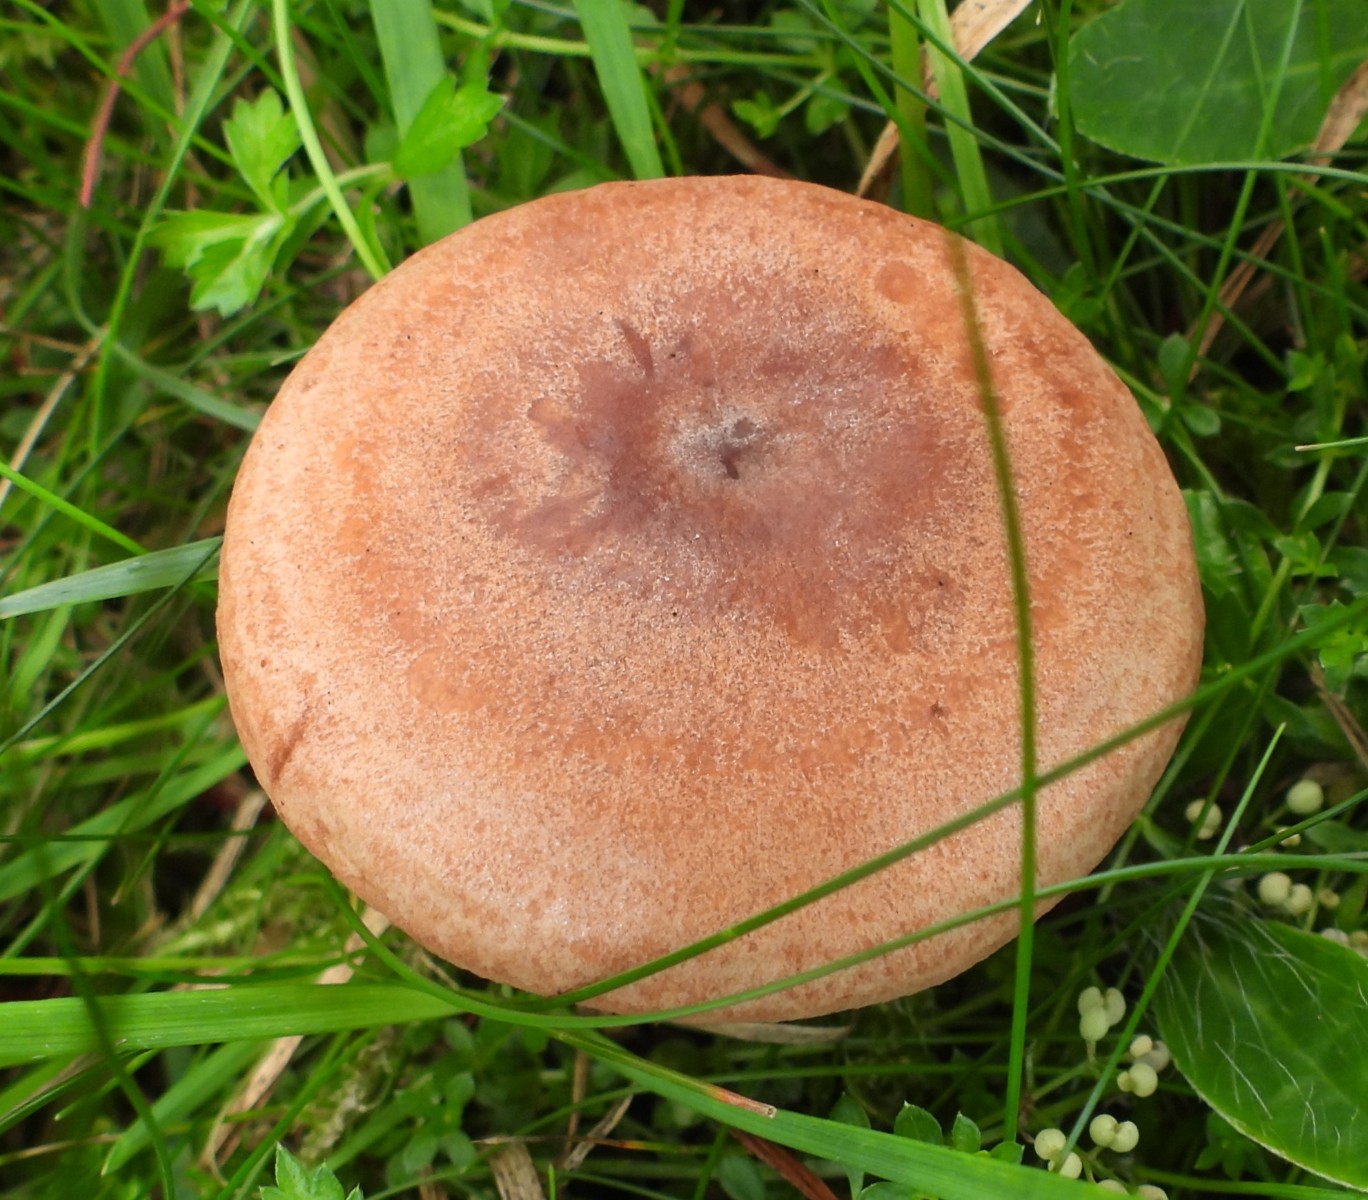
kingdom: Fungi
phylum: Basidiomycota
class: Agaricomycetes
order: Russulales
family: Russulaceae
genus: Lactarius
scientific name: Lactarius quietus
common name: ege-mælkehat
